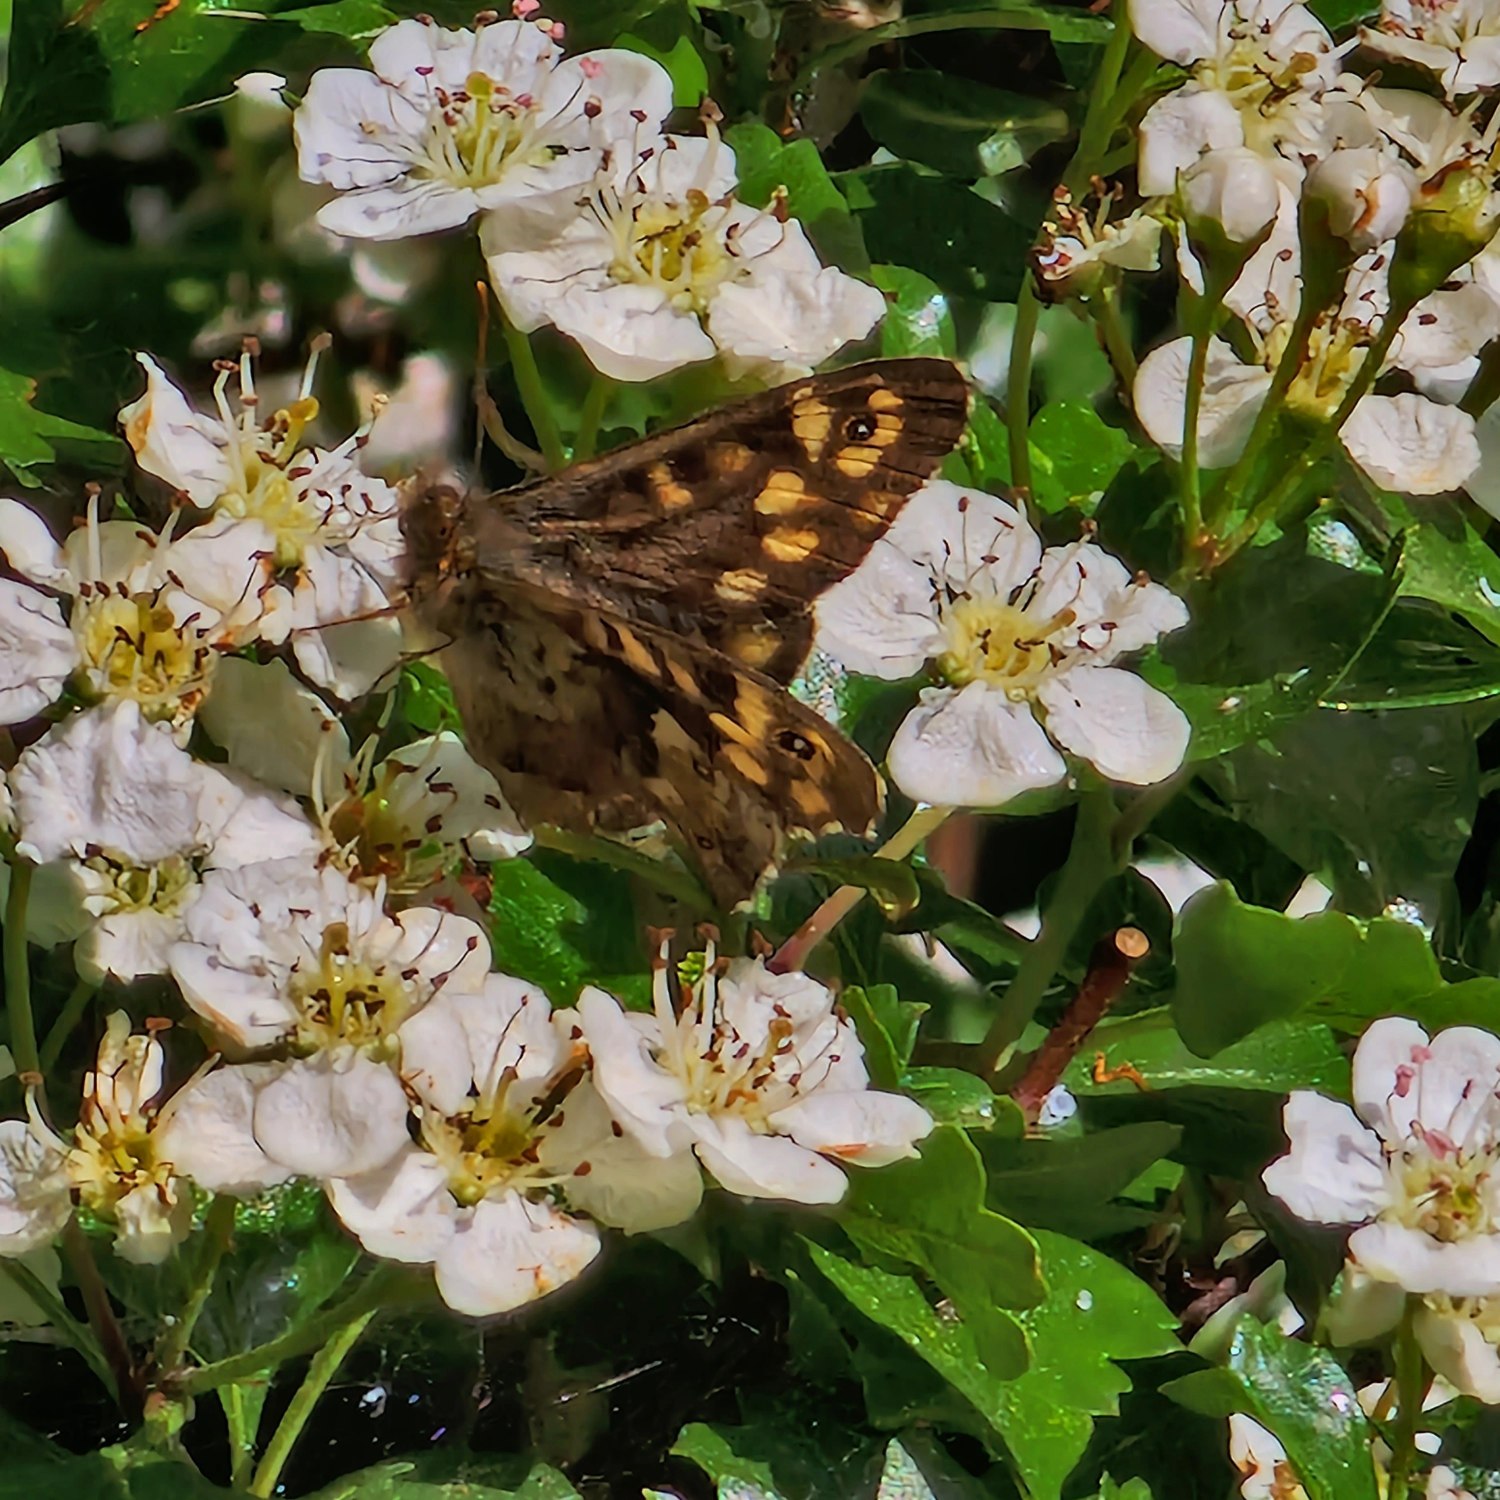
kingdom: Animalia
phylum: Arthropoda
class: Insecta
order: Lepidoptera
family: Nymphalidae
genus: Pararge
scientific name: Pararge aegeria
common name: Skovrandøje
